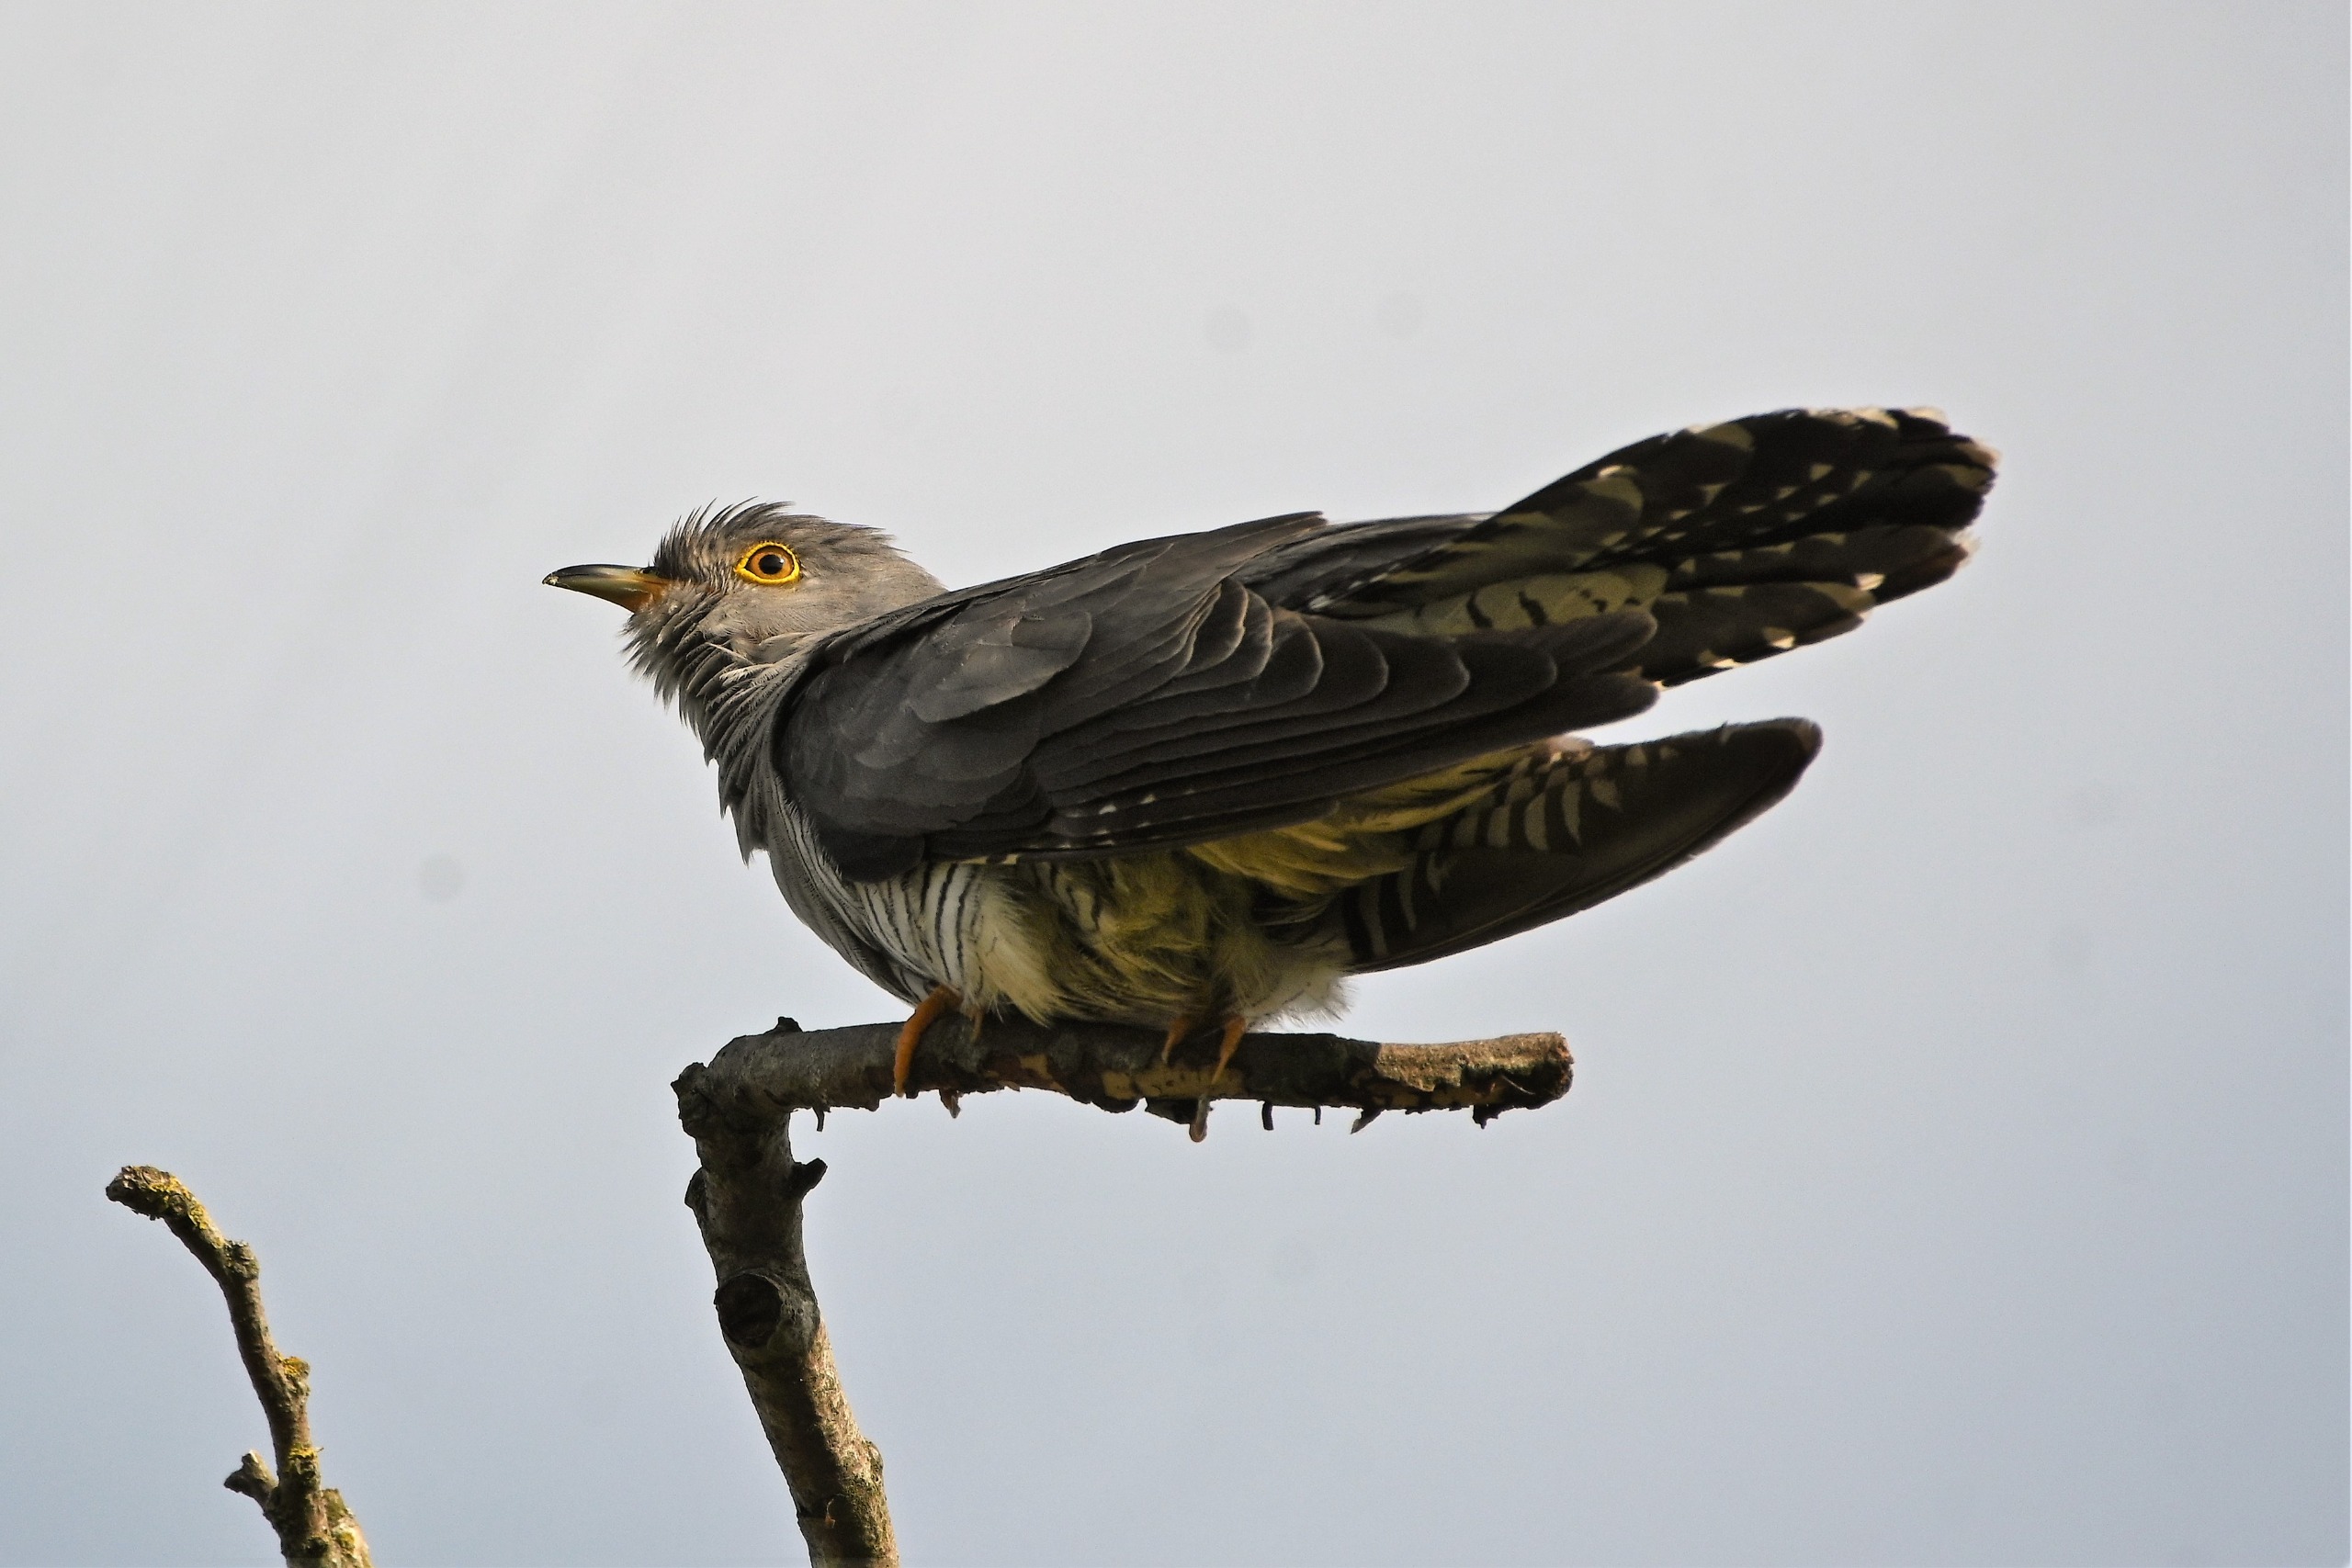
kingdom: Animalia
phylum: Chordata
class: Aves
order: Cuculiformes
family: Cuculidae
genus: Cuculus
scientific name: Cuculus canorus
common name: Gøg
